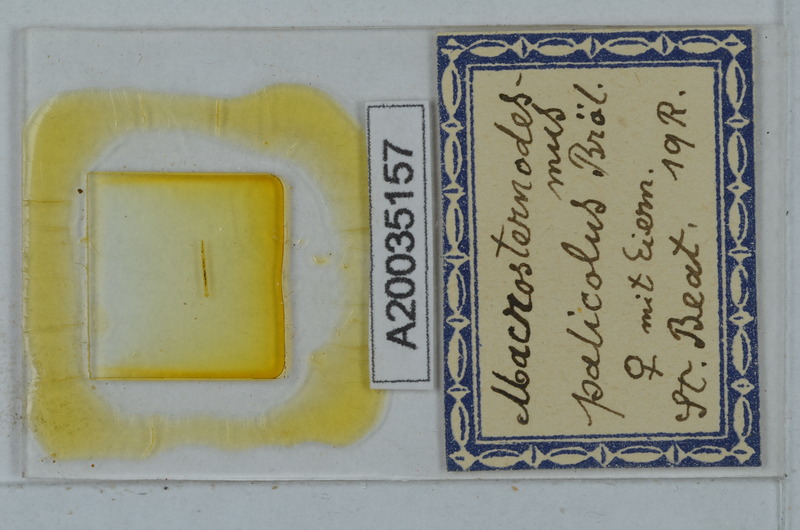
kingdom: Animalia
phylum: Arthropoda
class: Diplopoda
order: Polydesmida
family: Macrosternodesmidae
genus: Macrosternodesmus
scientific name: Macrosternodesmus palicola
